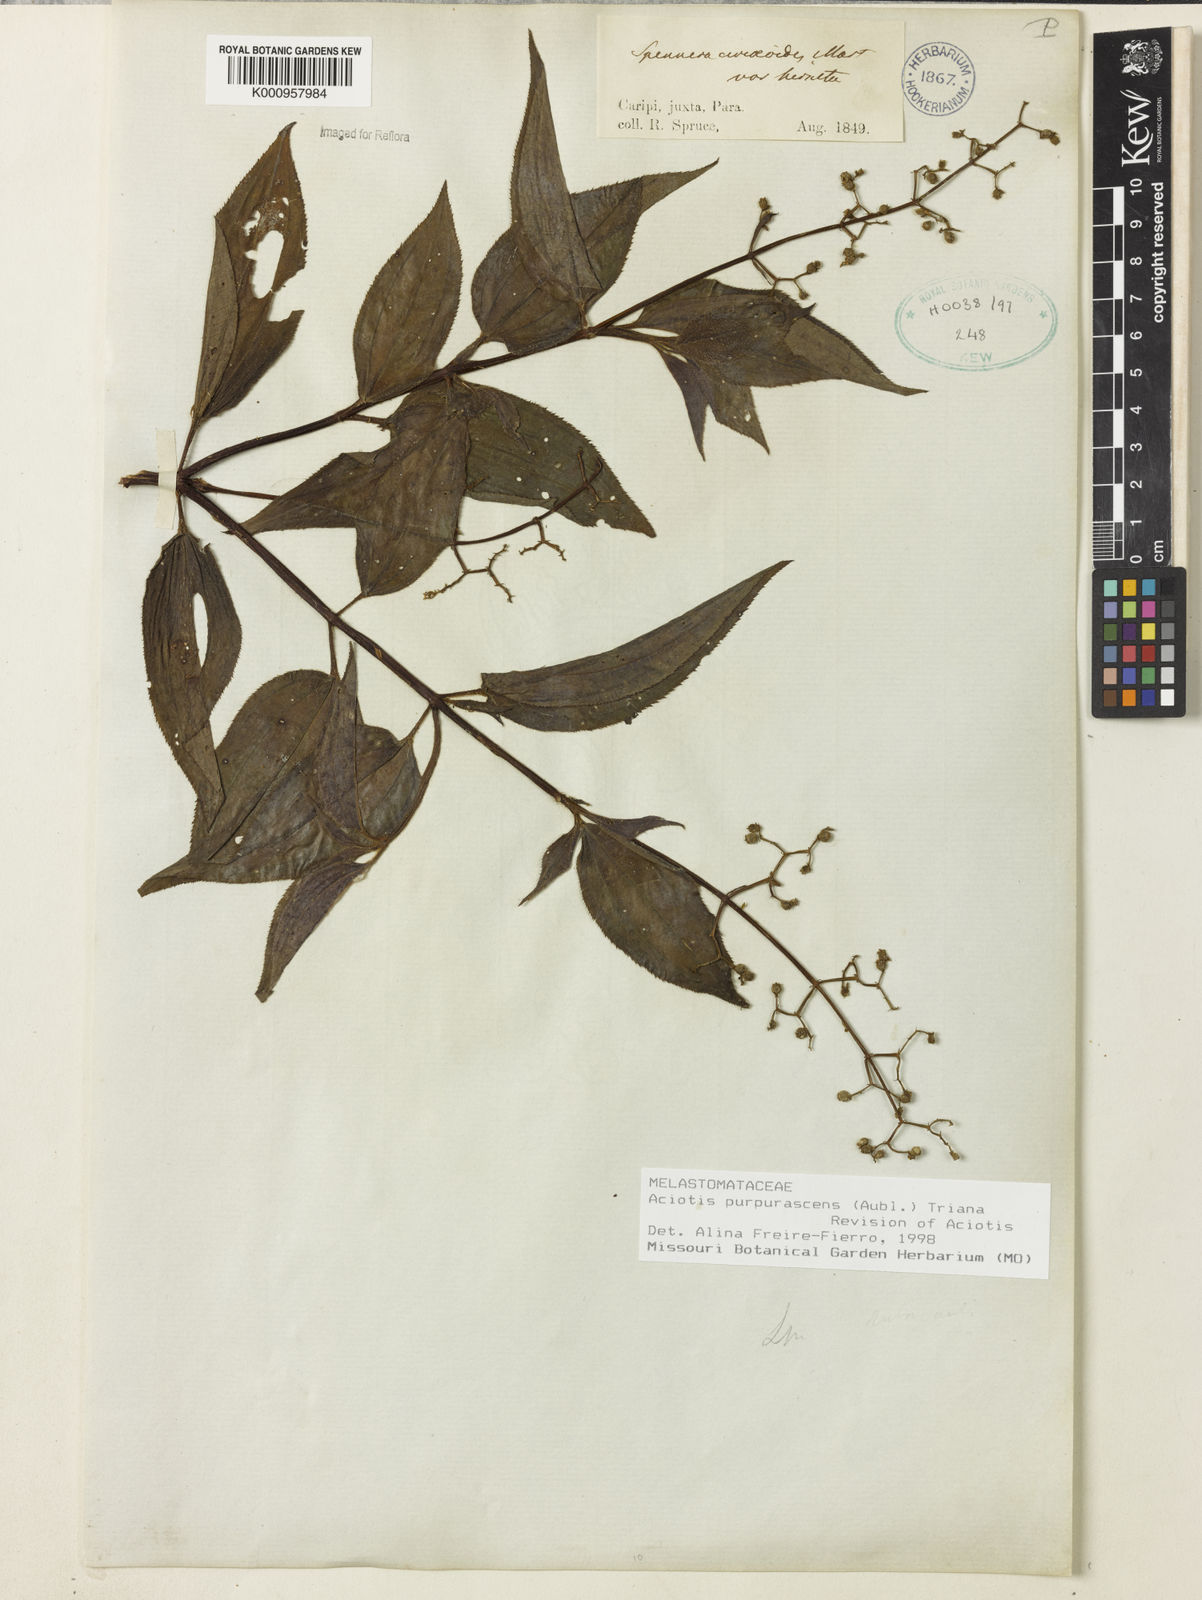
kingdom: Plantae
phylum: Tracheophyta
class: Magnoliopsida
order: Myrtales
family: Melastomataceae
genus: Aciotis
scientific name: Aciotis purpurascens
